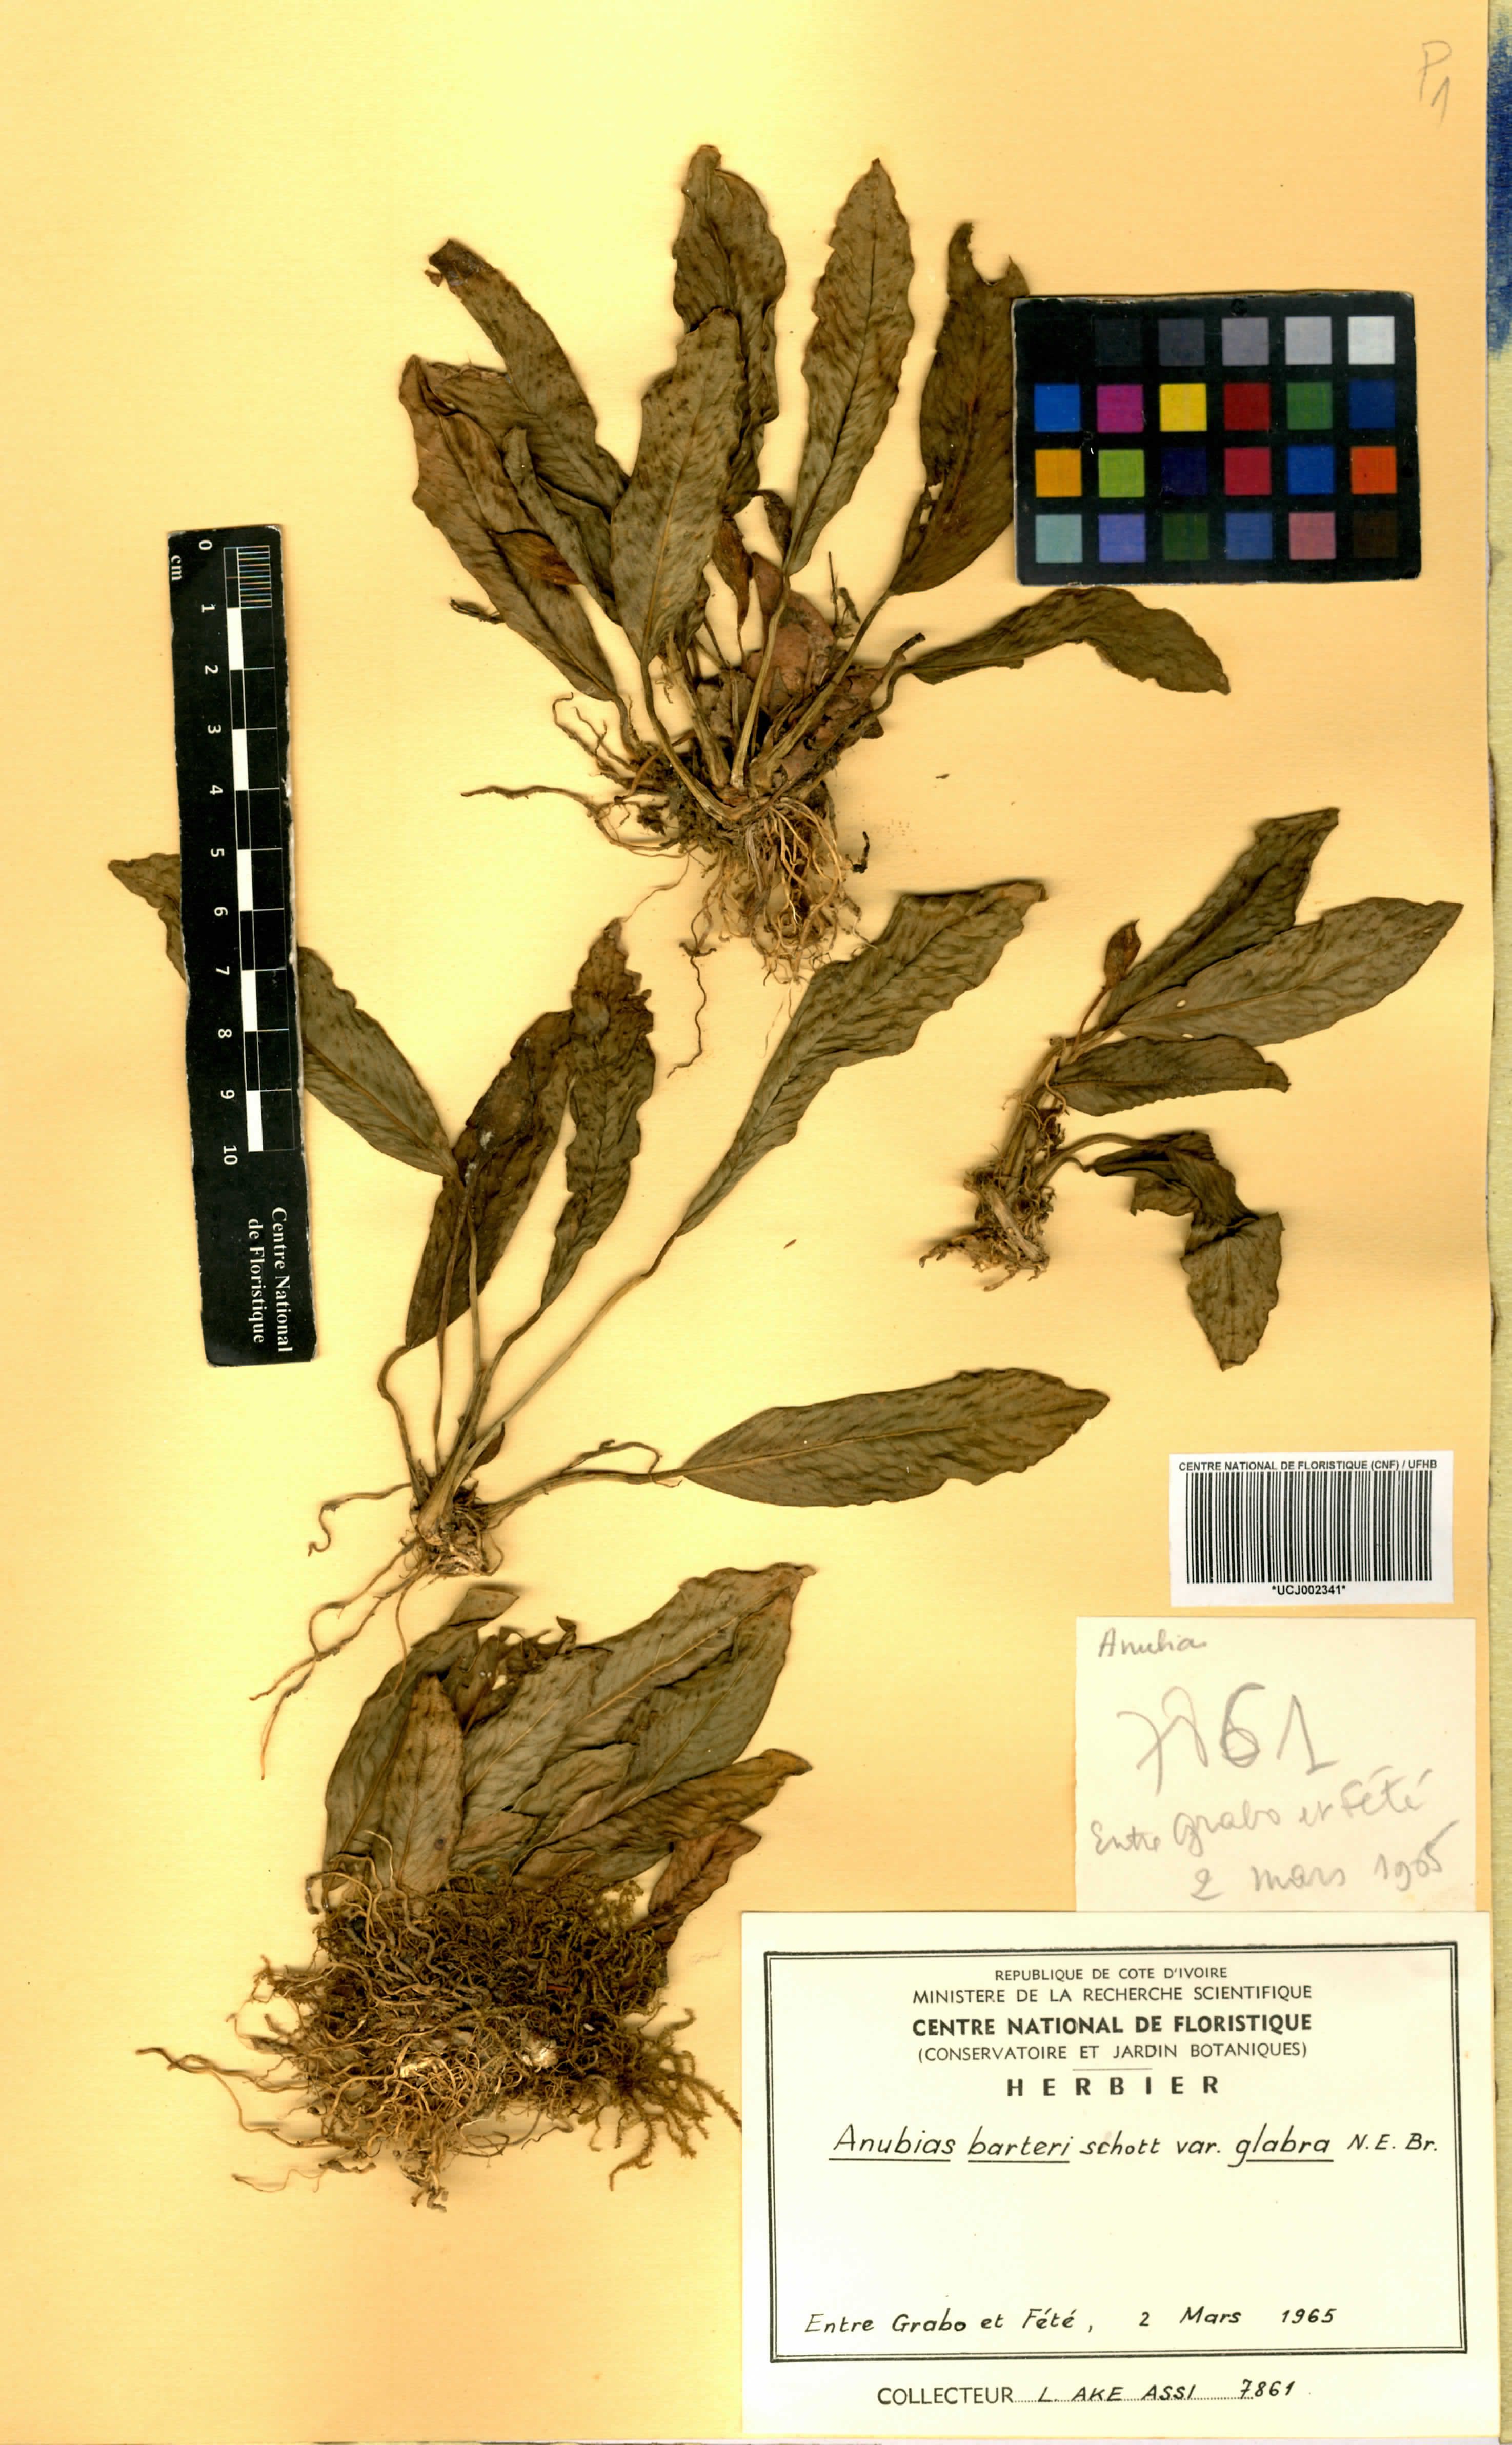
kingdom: Plantae
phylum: Tracheophyta
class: Liliopsida
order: Alismatales
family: Araceae
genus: Anubias
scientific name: Anubias barteri
